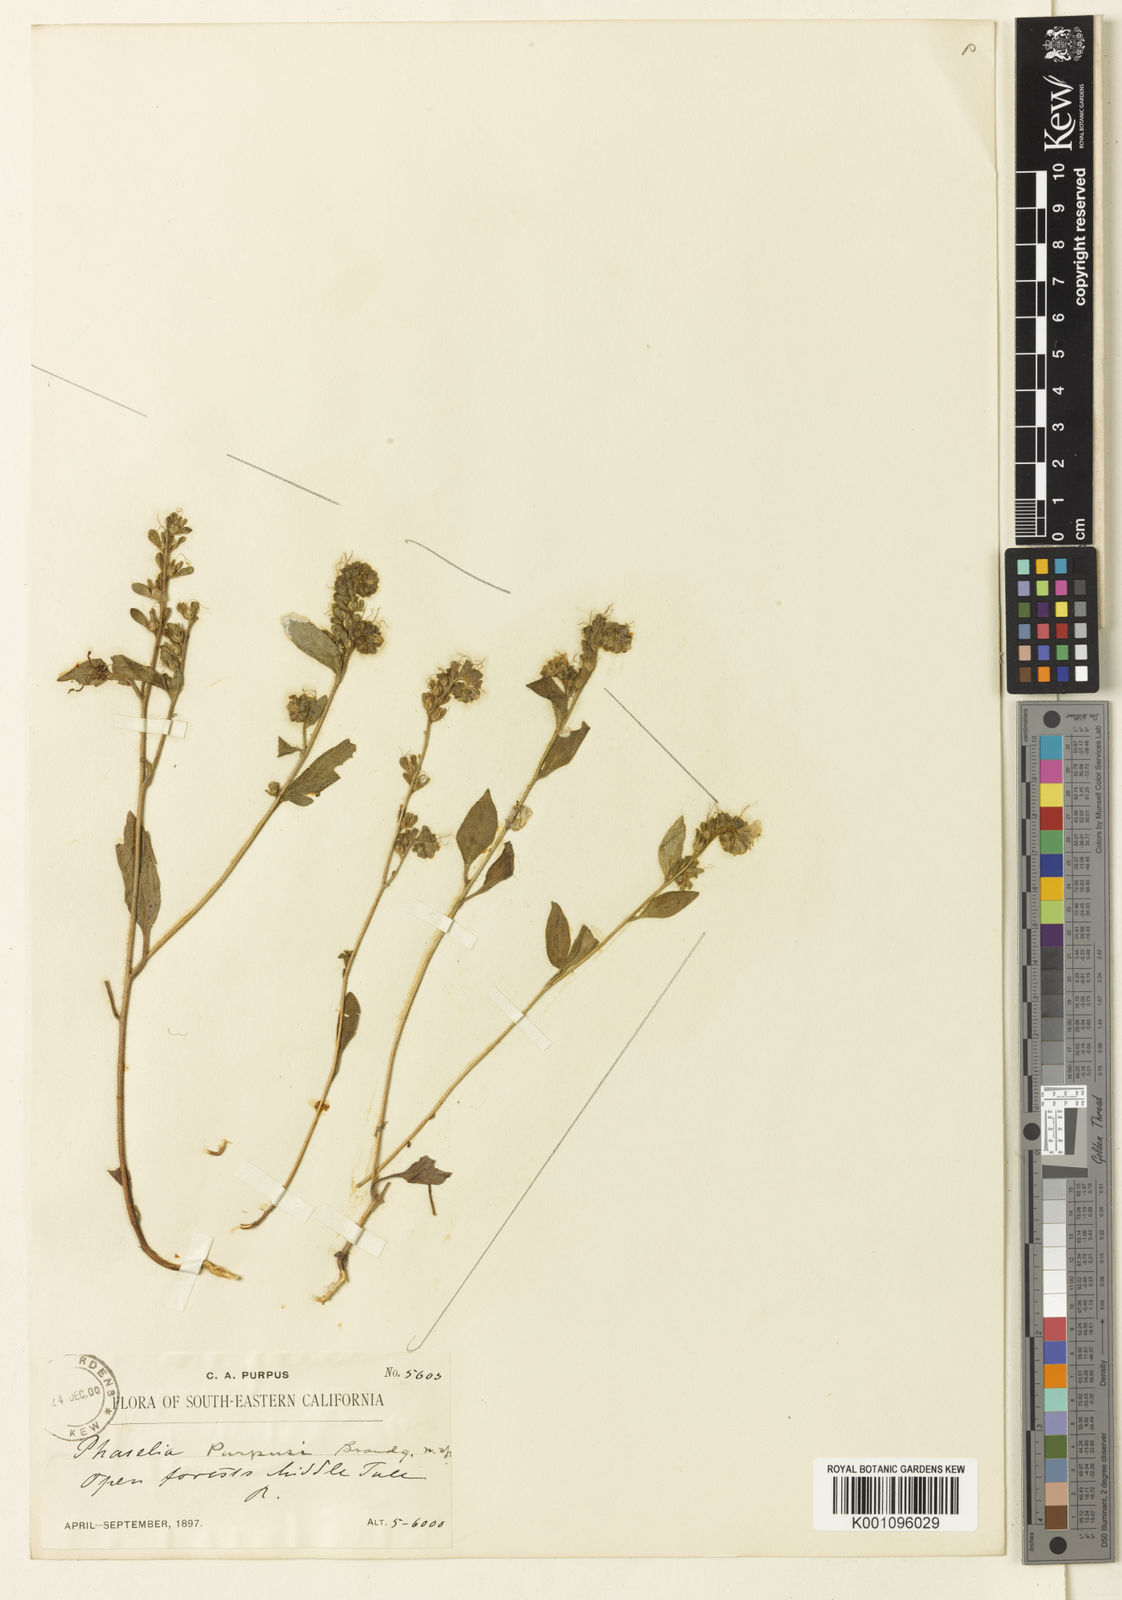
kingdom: Plantae
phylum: Tracheophyta
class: Magnoliopsida
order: Boraginales
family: Hydrophyllaceae
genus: Phacelia
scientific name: Phacelia purpusii
